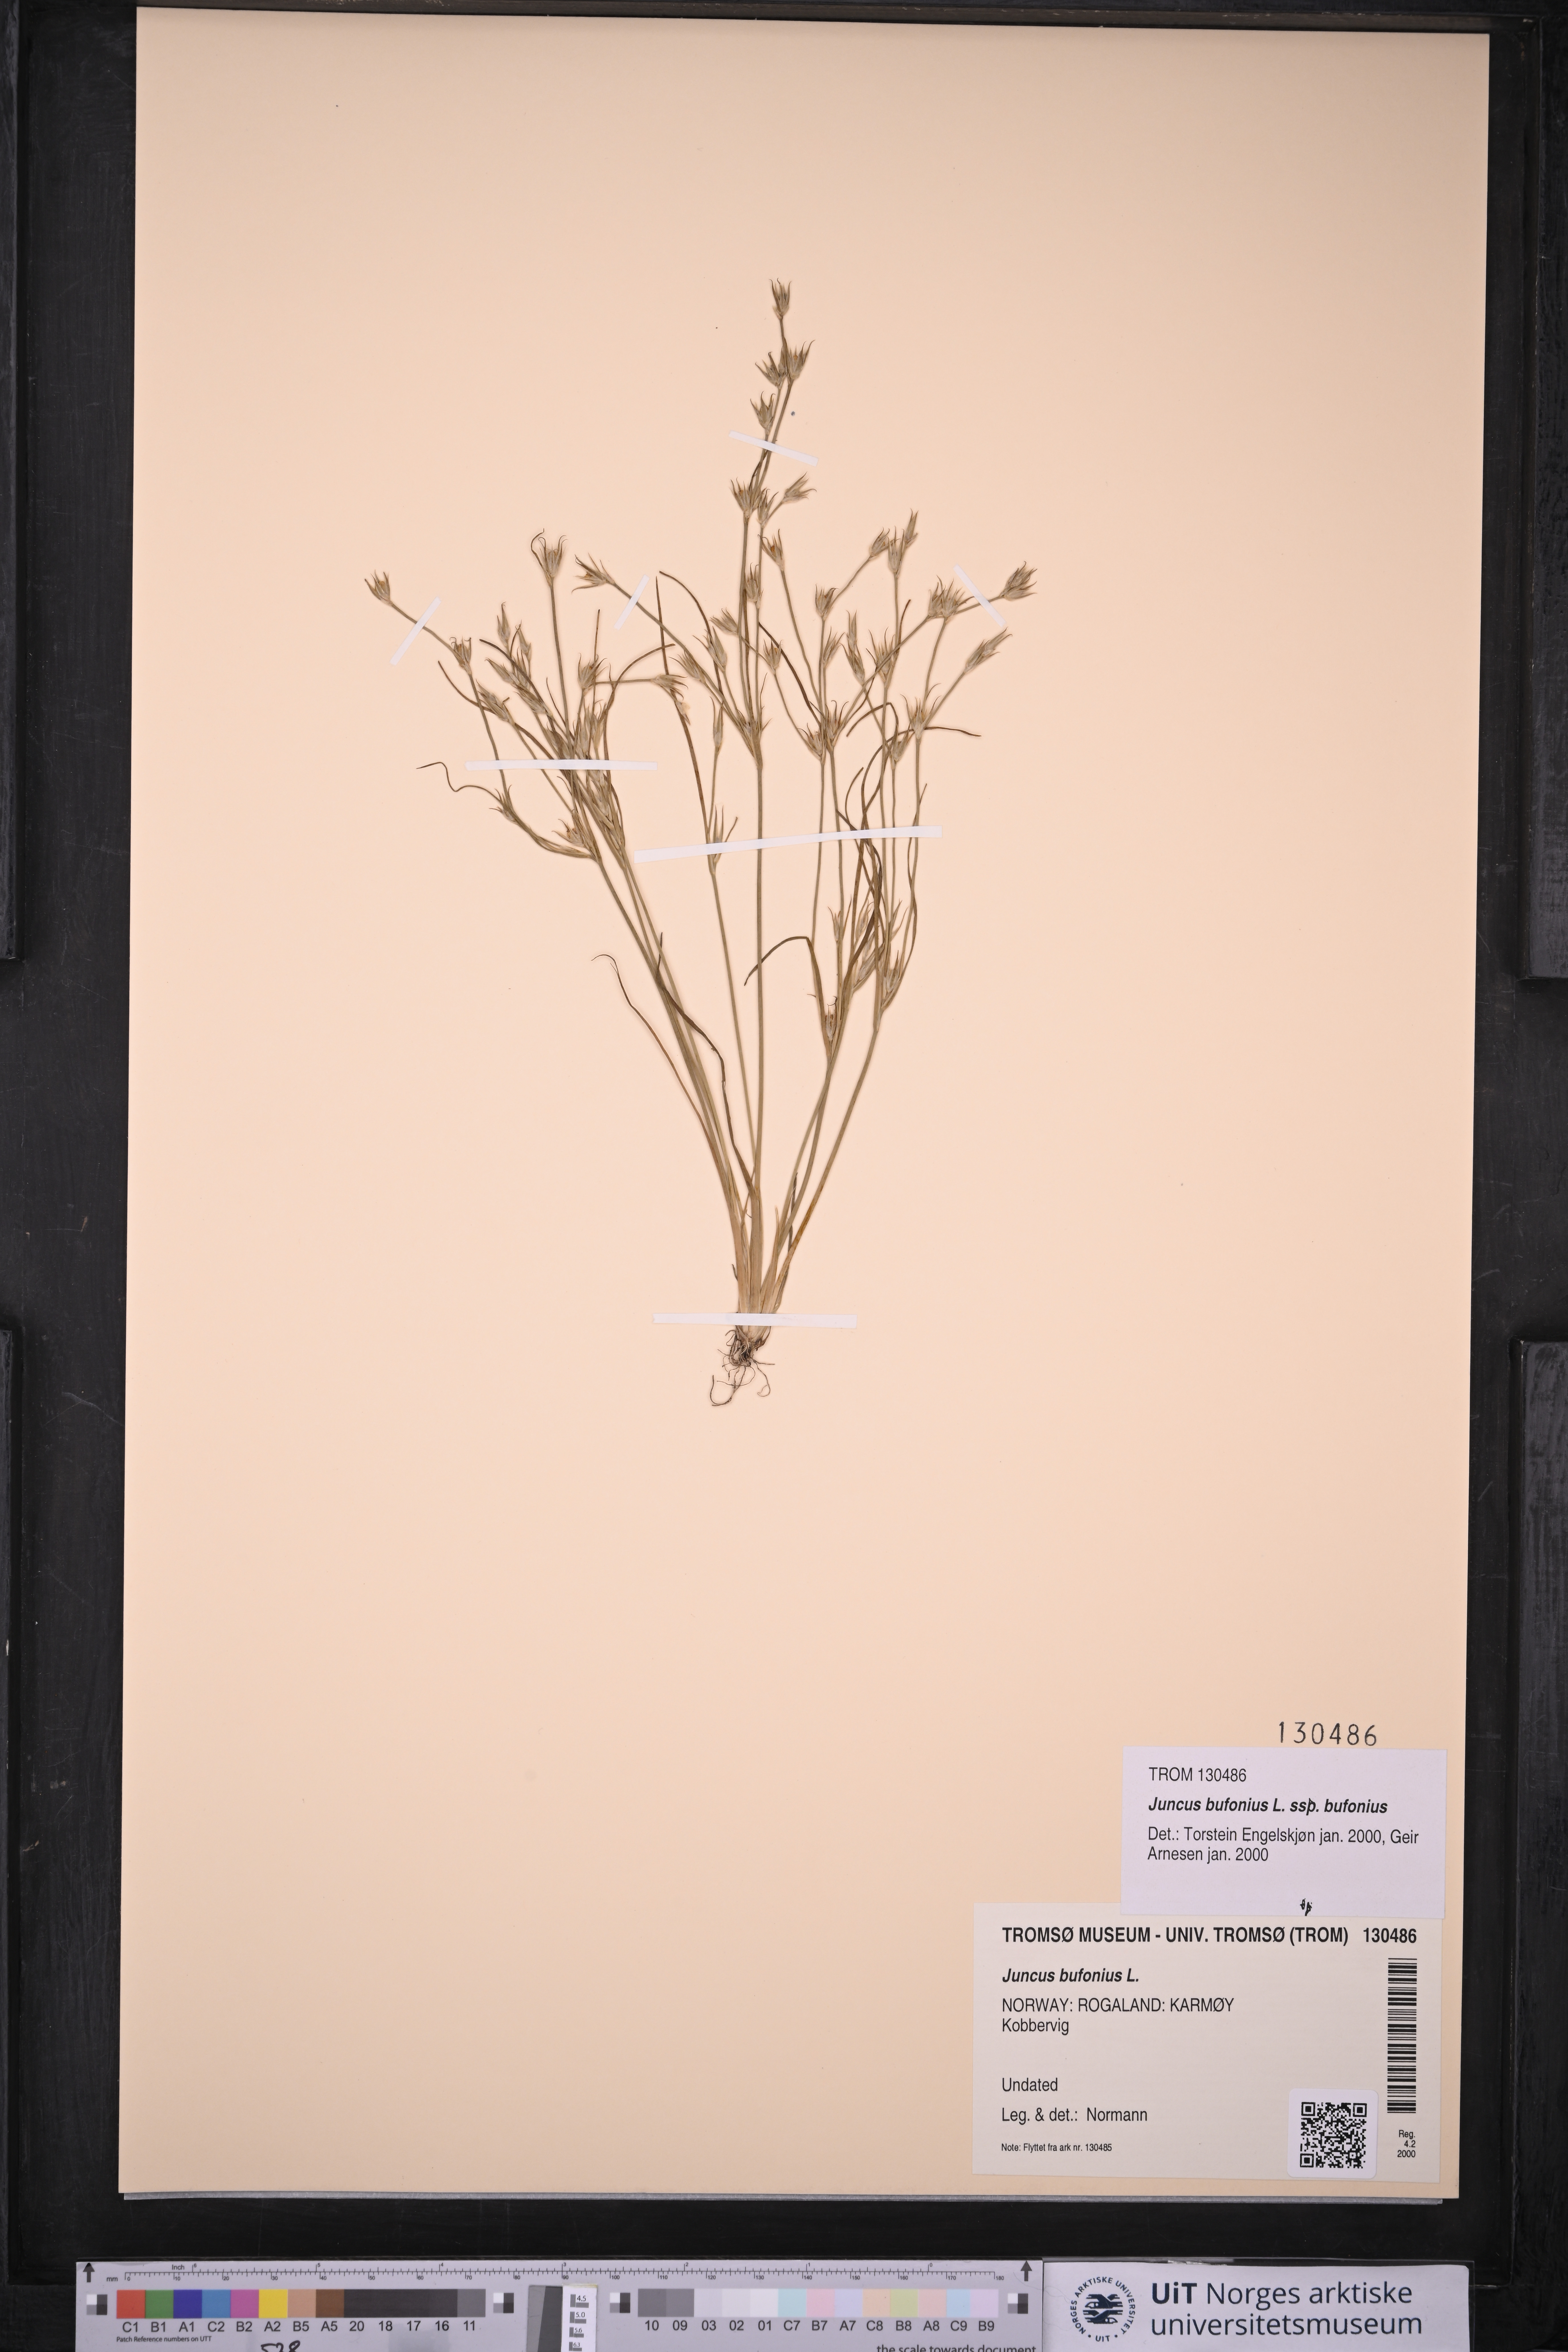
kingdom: Plantae
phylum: Tracheophyta
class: Liliopsida
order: Poales
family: Juncaceae
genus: Juncus
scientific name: Juncus bufonius
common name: Toad rush
